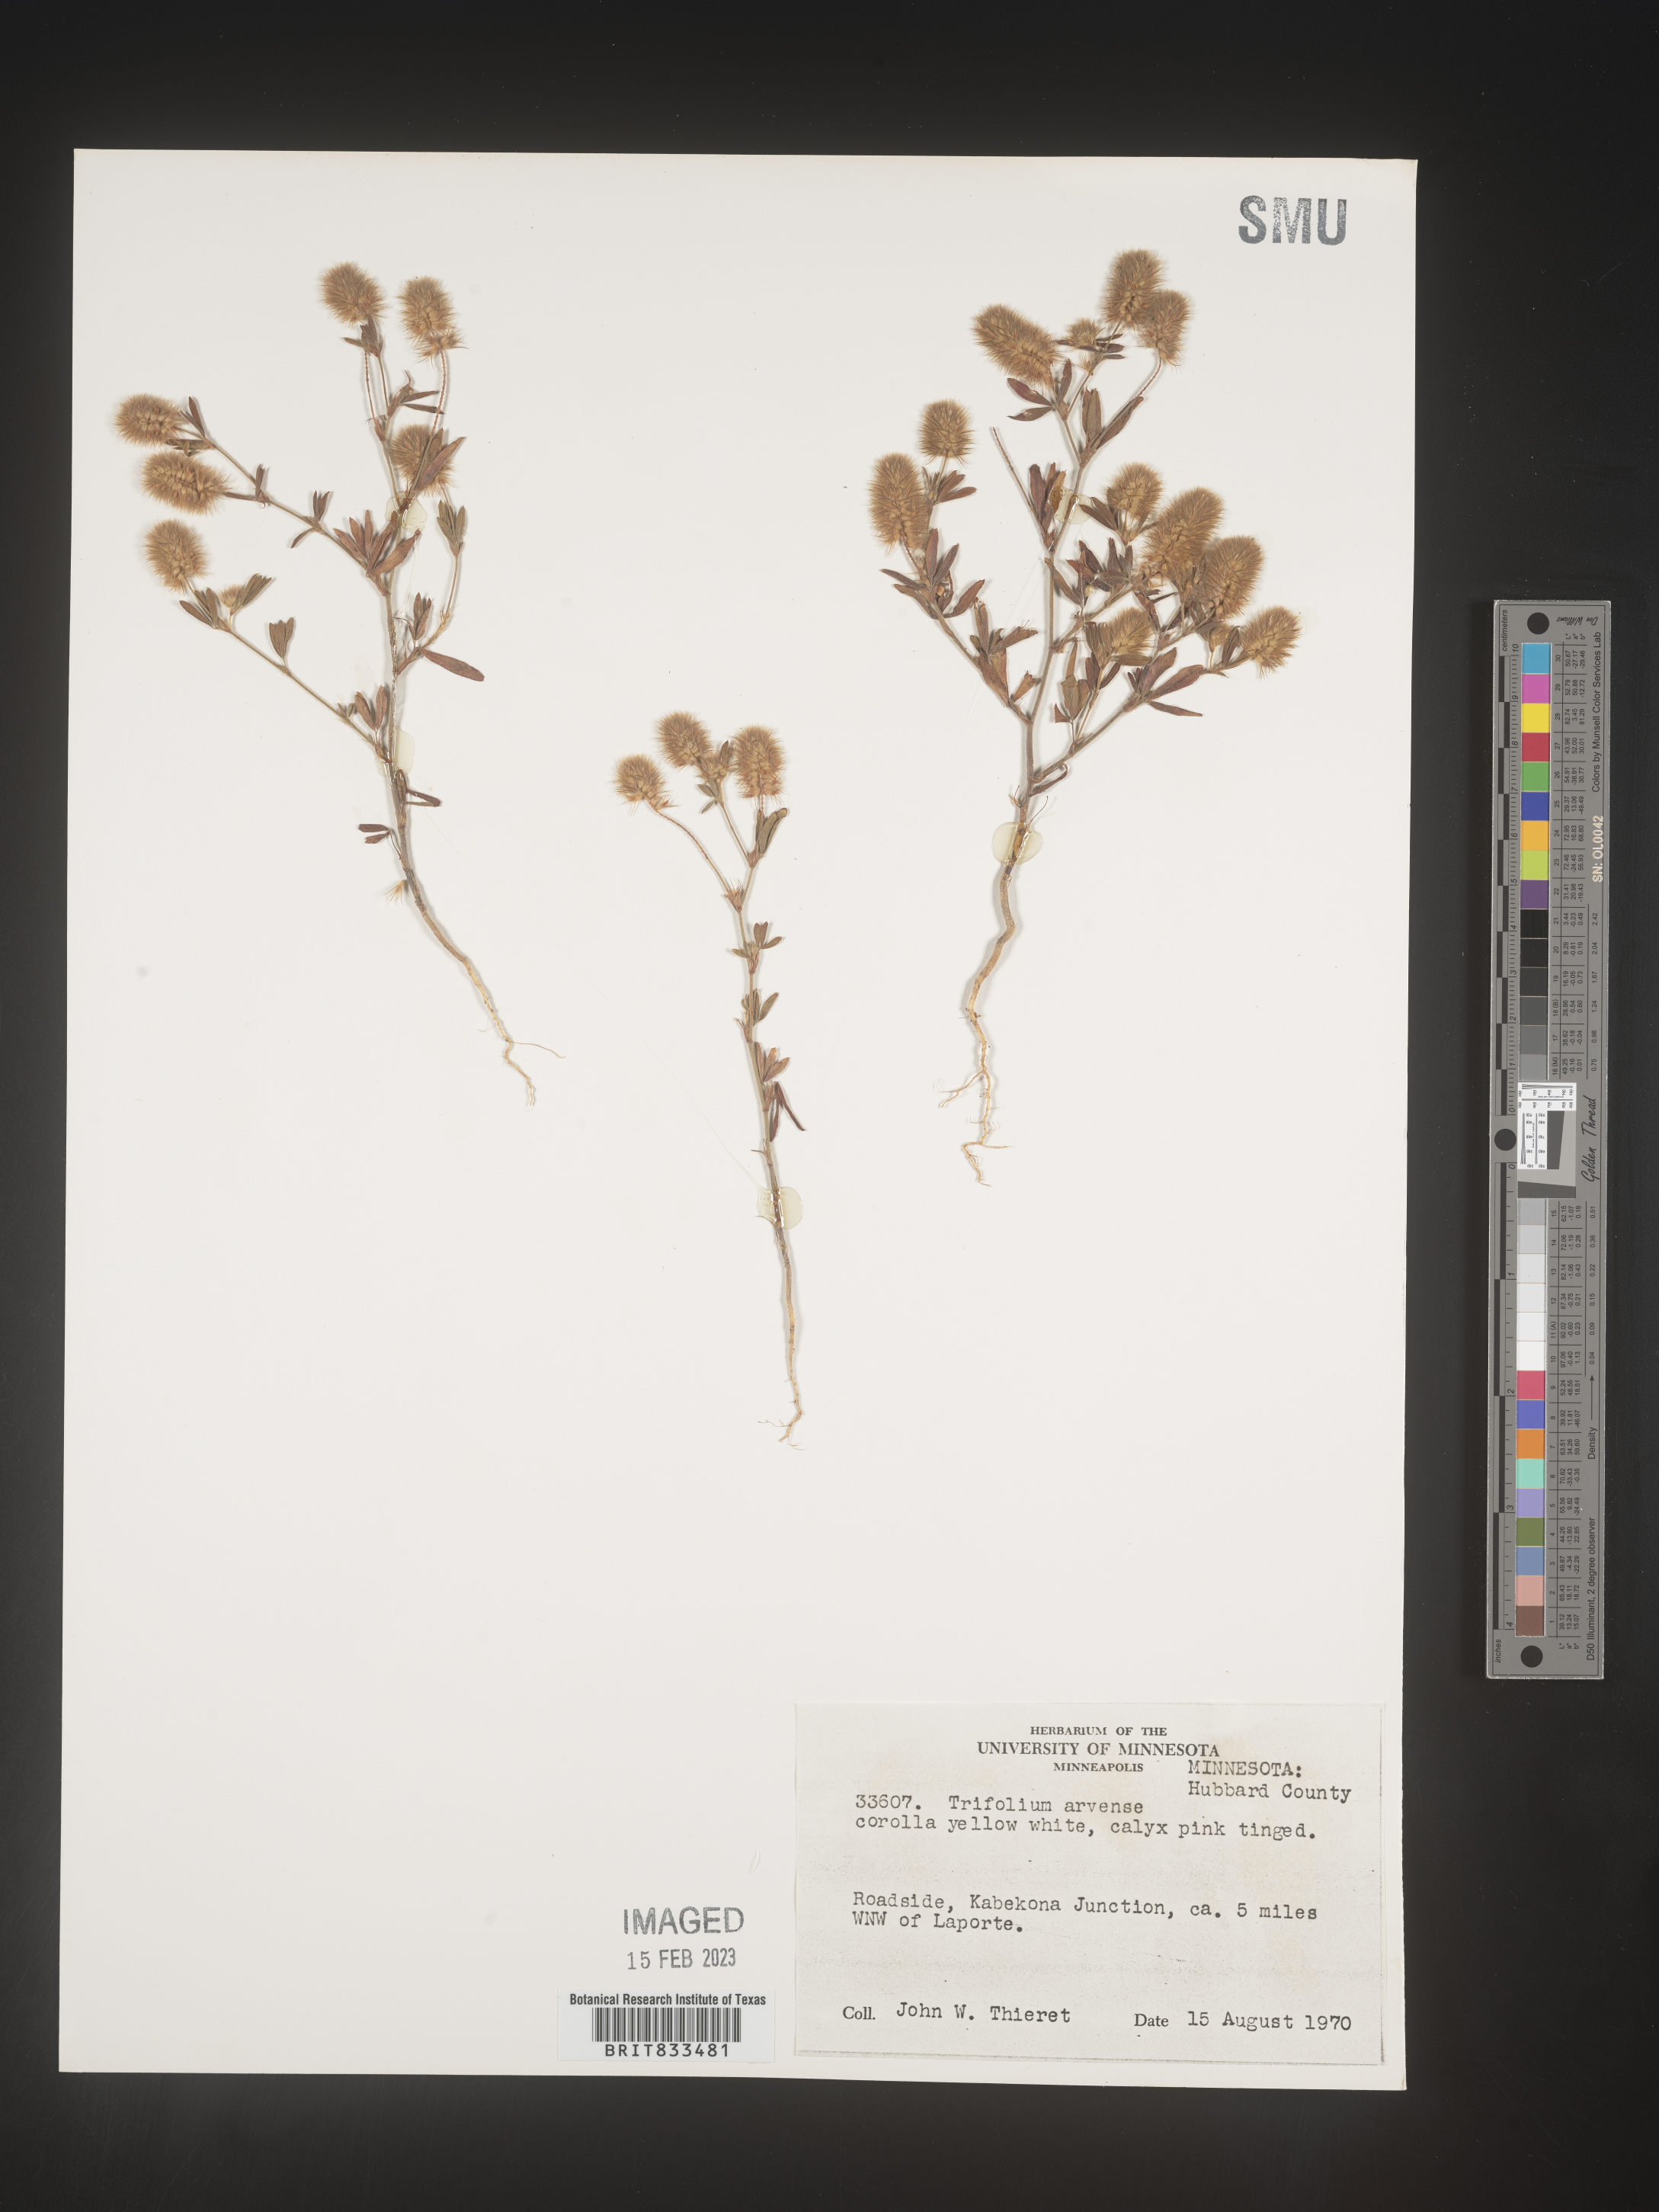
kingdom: Plantae
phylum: Tracheophyta
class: Magnoliopsida
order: Fabales
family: Fabaceae
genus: Trifolium
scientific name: Trifolium arvense
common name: Hare's-foot clover
